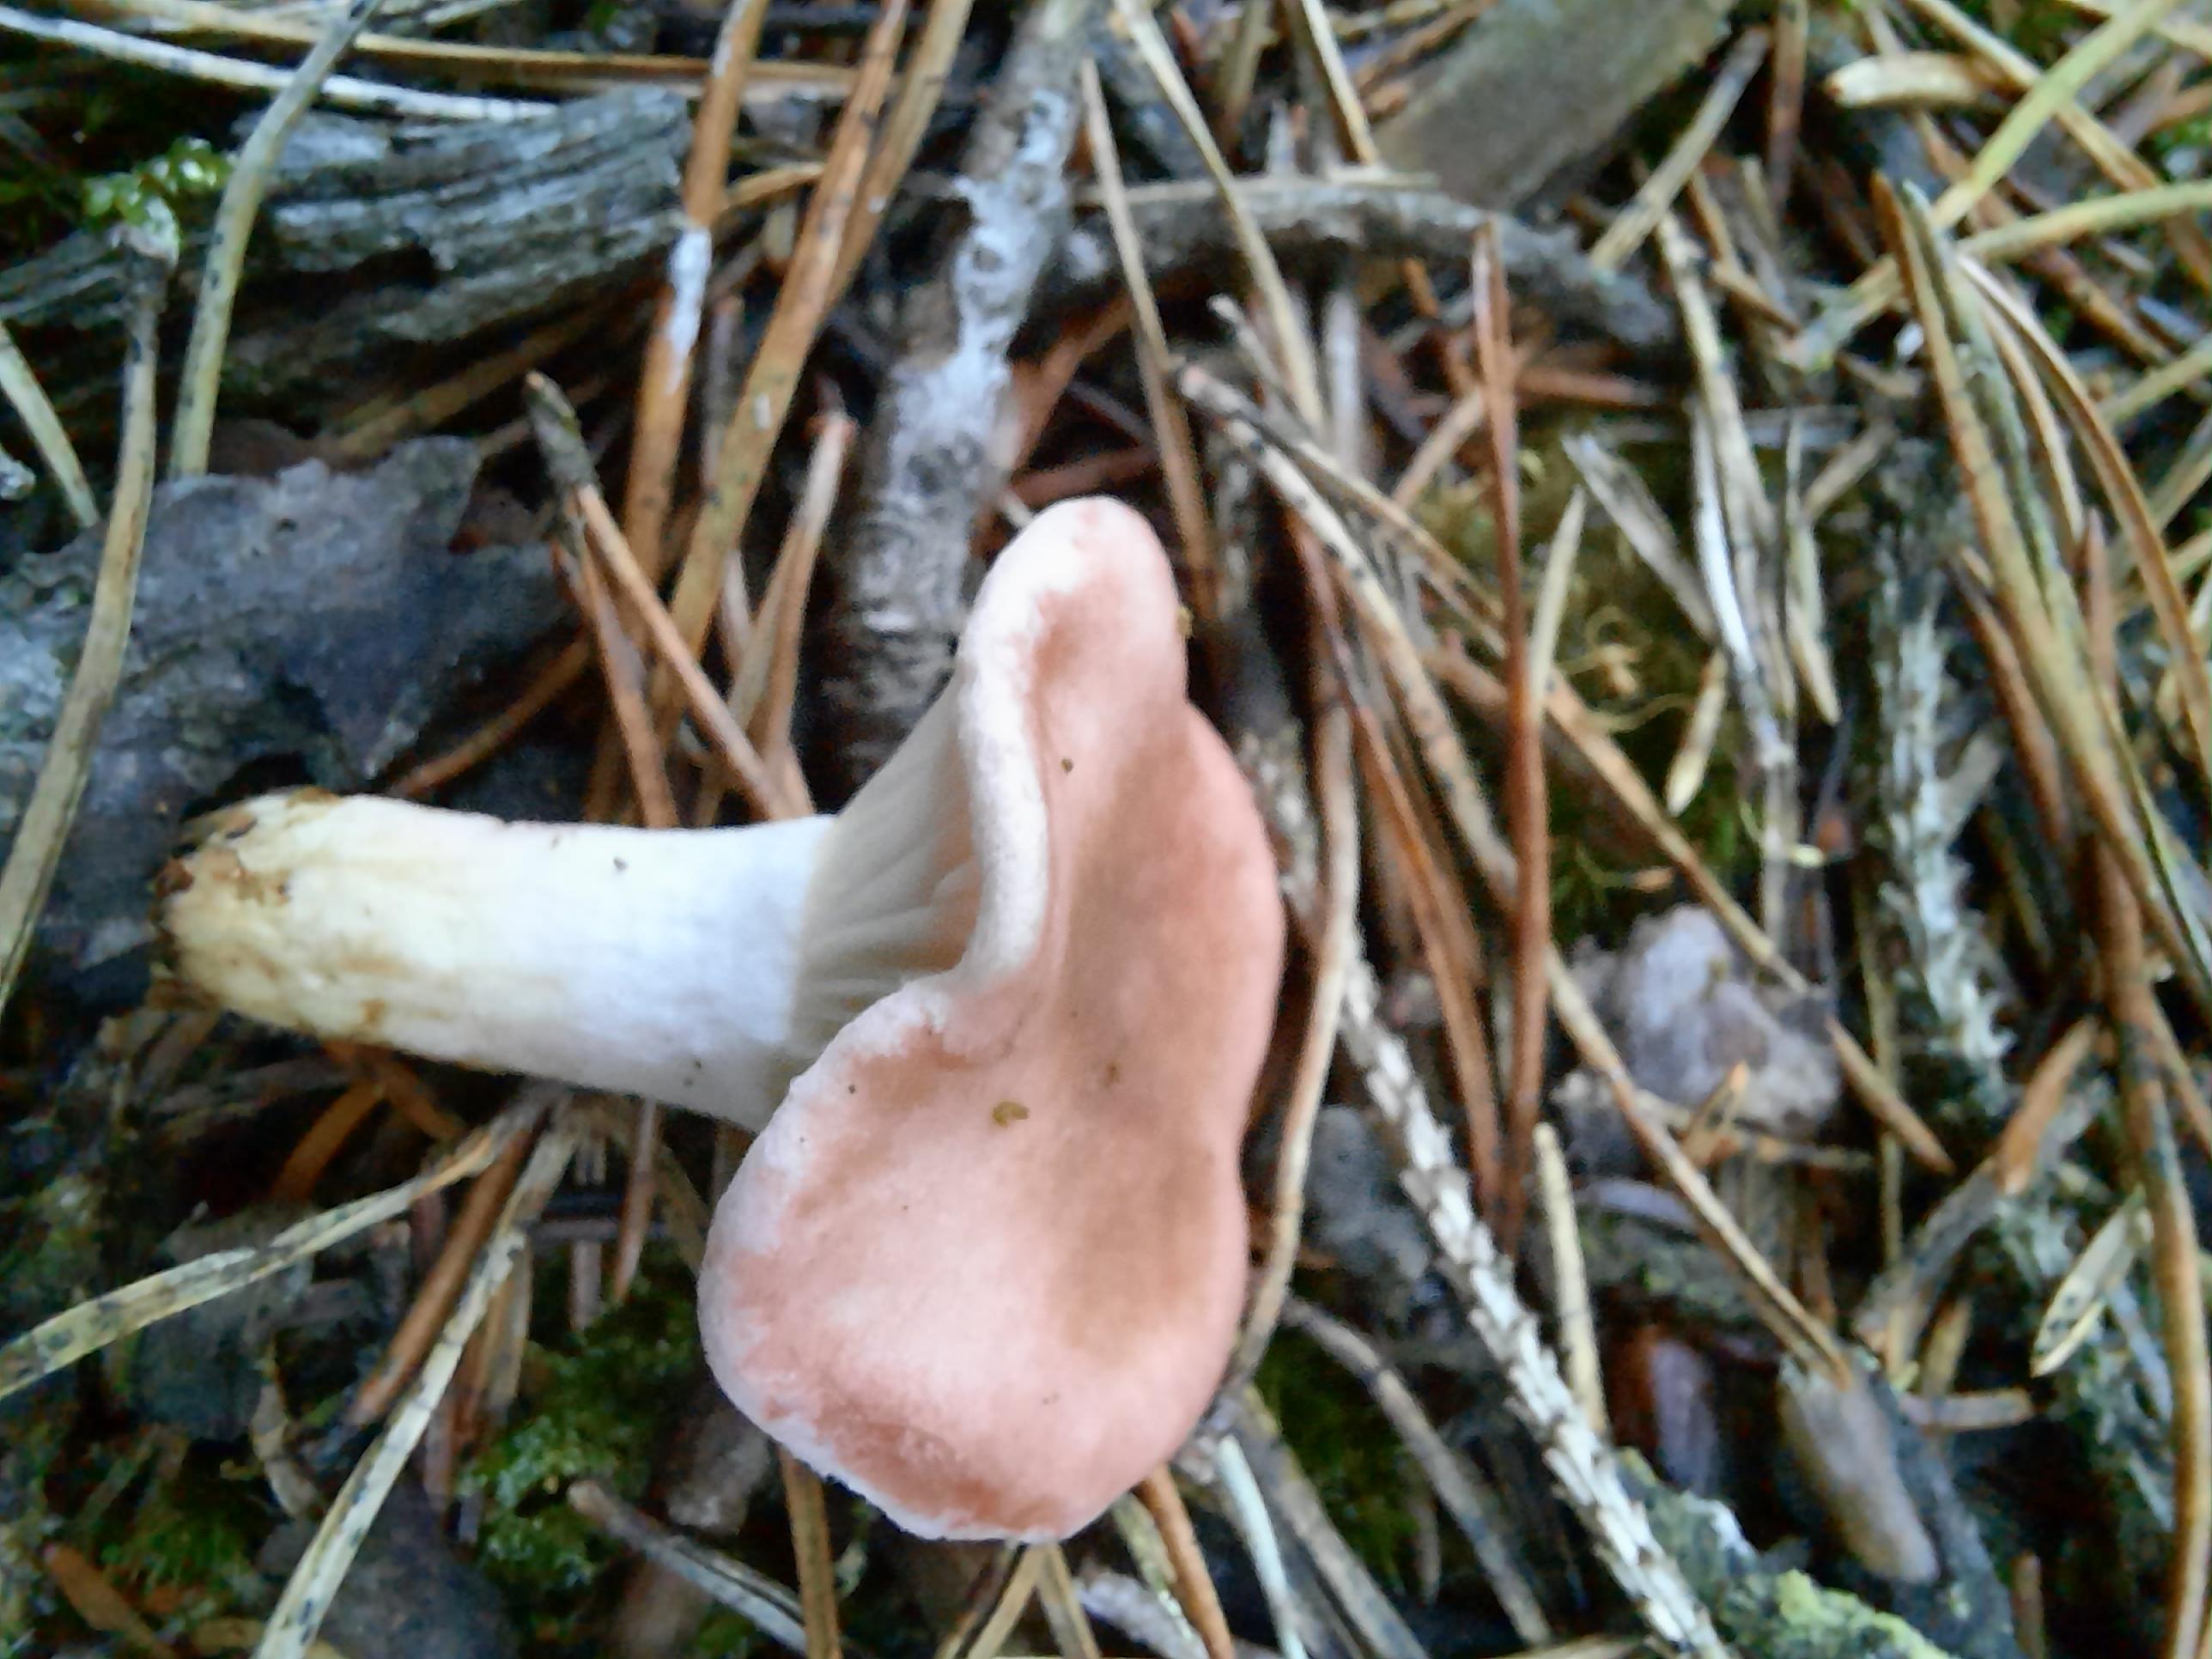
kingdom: Fungi
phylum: Basidiomycota
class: Agaricomycetes
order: Boletales
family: Gomphidiaceae
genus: Gomphidius
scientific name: Gomphidius roseus
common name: rosenrød slimslør
